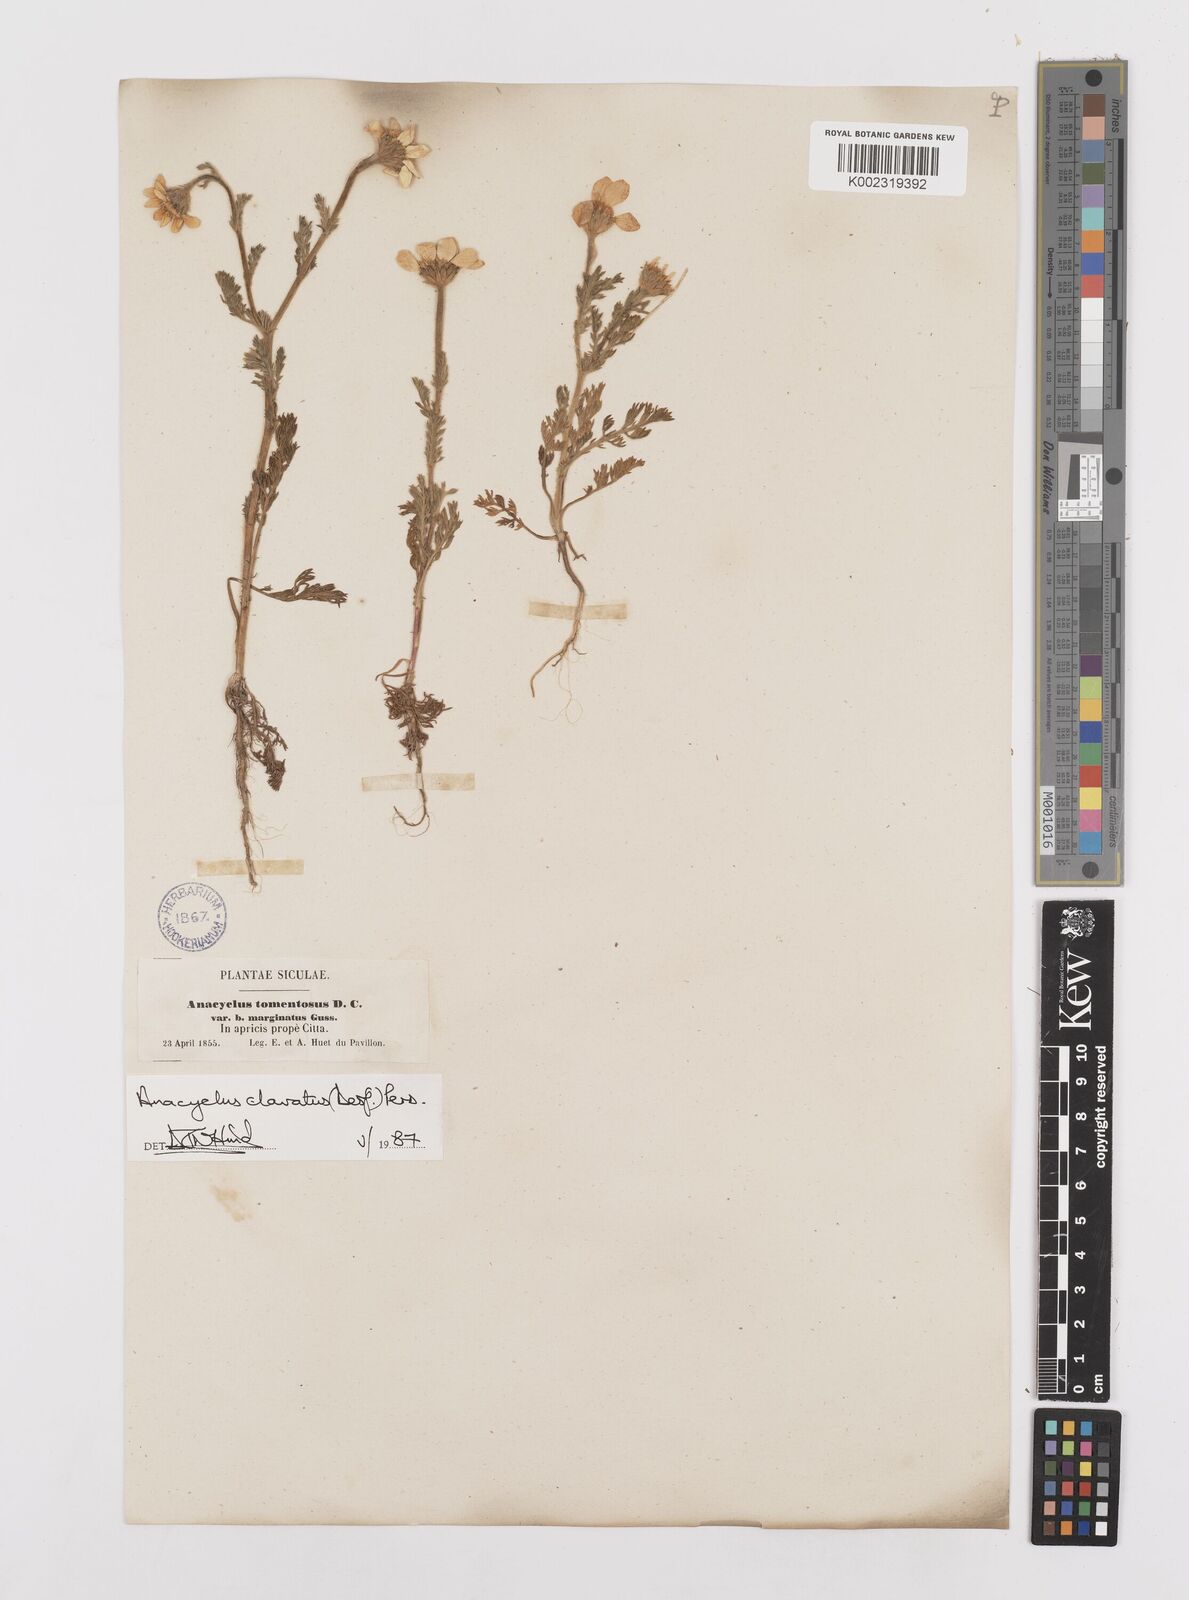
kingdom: Plantae
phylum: Tracheophyta
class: Magnoliopsida
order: Asterales
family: Asteraceae
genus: Anacyclus
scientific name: Anacyclus clavatus
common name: Whitebuttons
